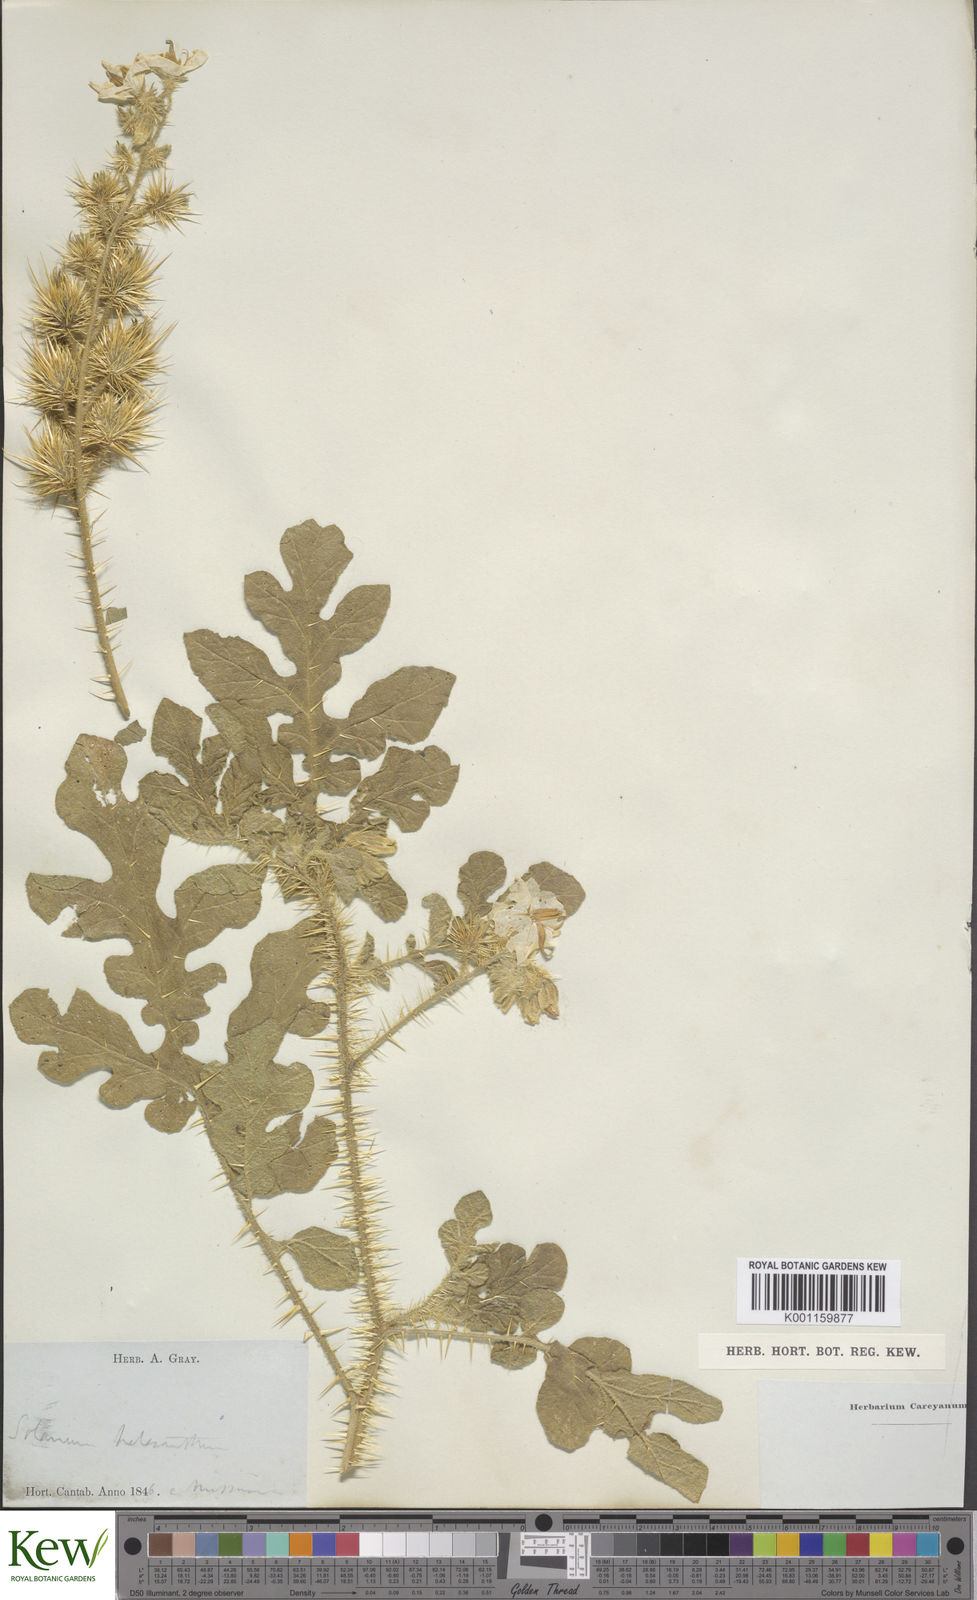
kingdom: Plantae
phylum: Tracheophyta
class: Magnoliopsida
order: Solanales
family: Solanaceae
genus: Solanum
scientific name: Solanum angustifolium
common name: Buffalobur nightshade
